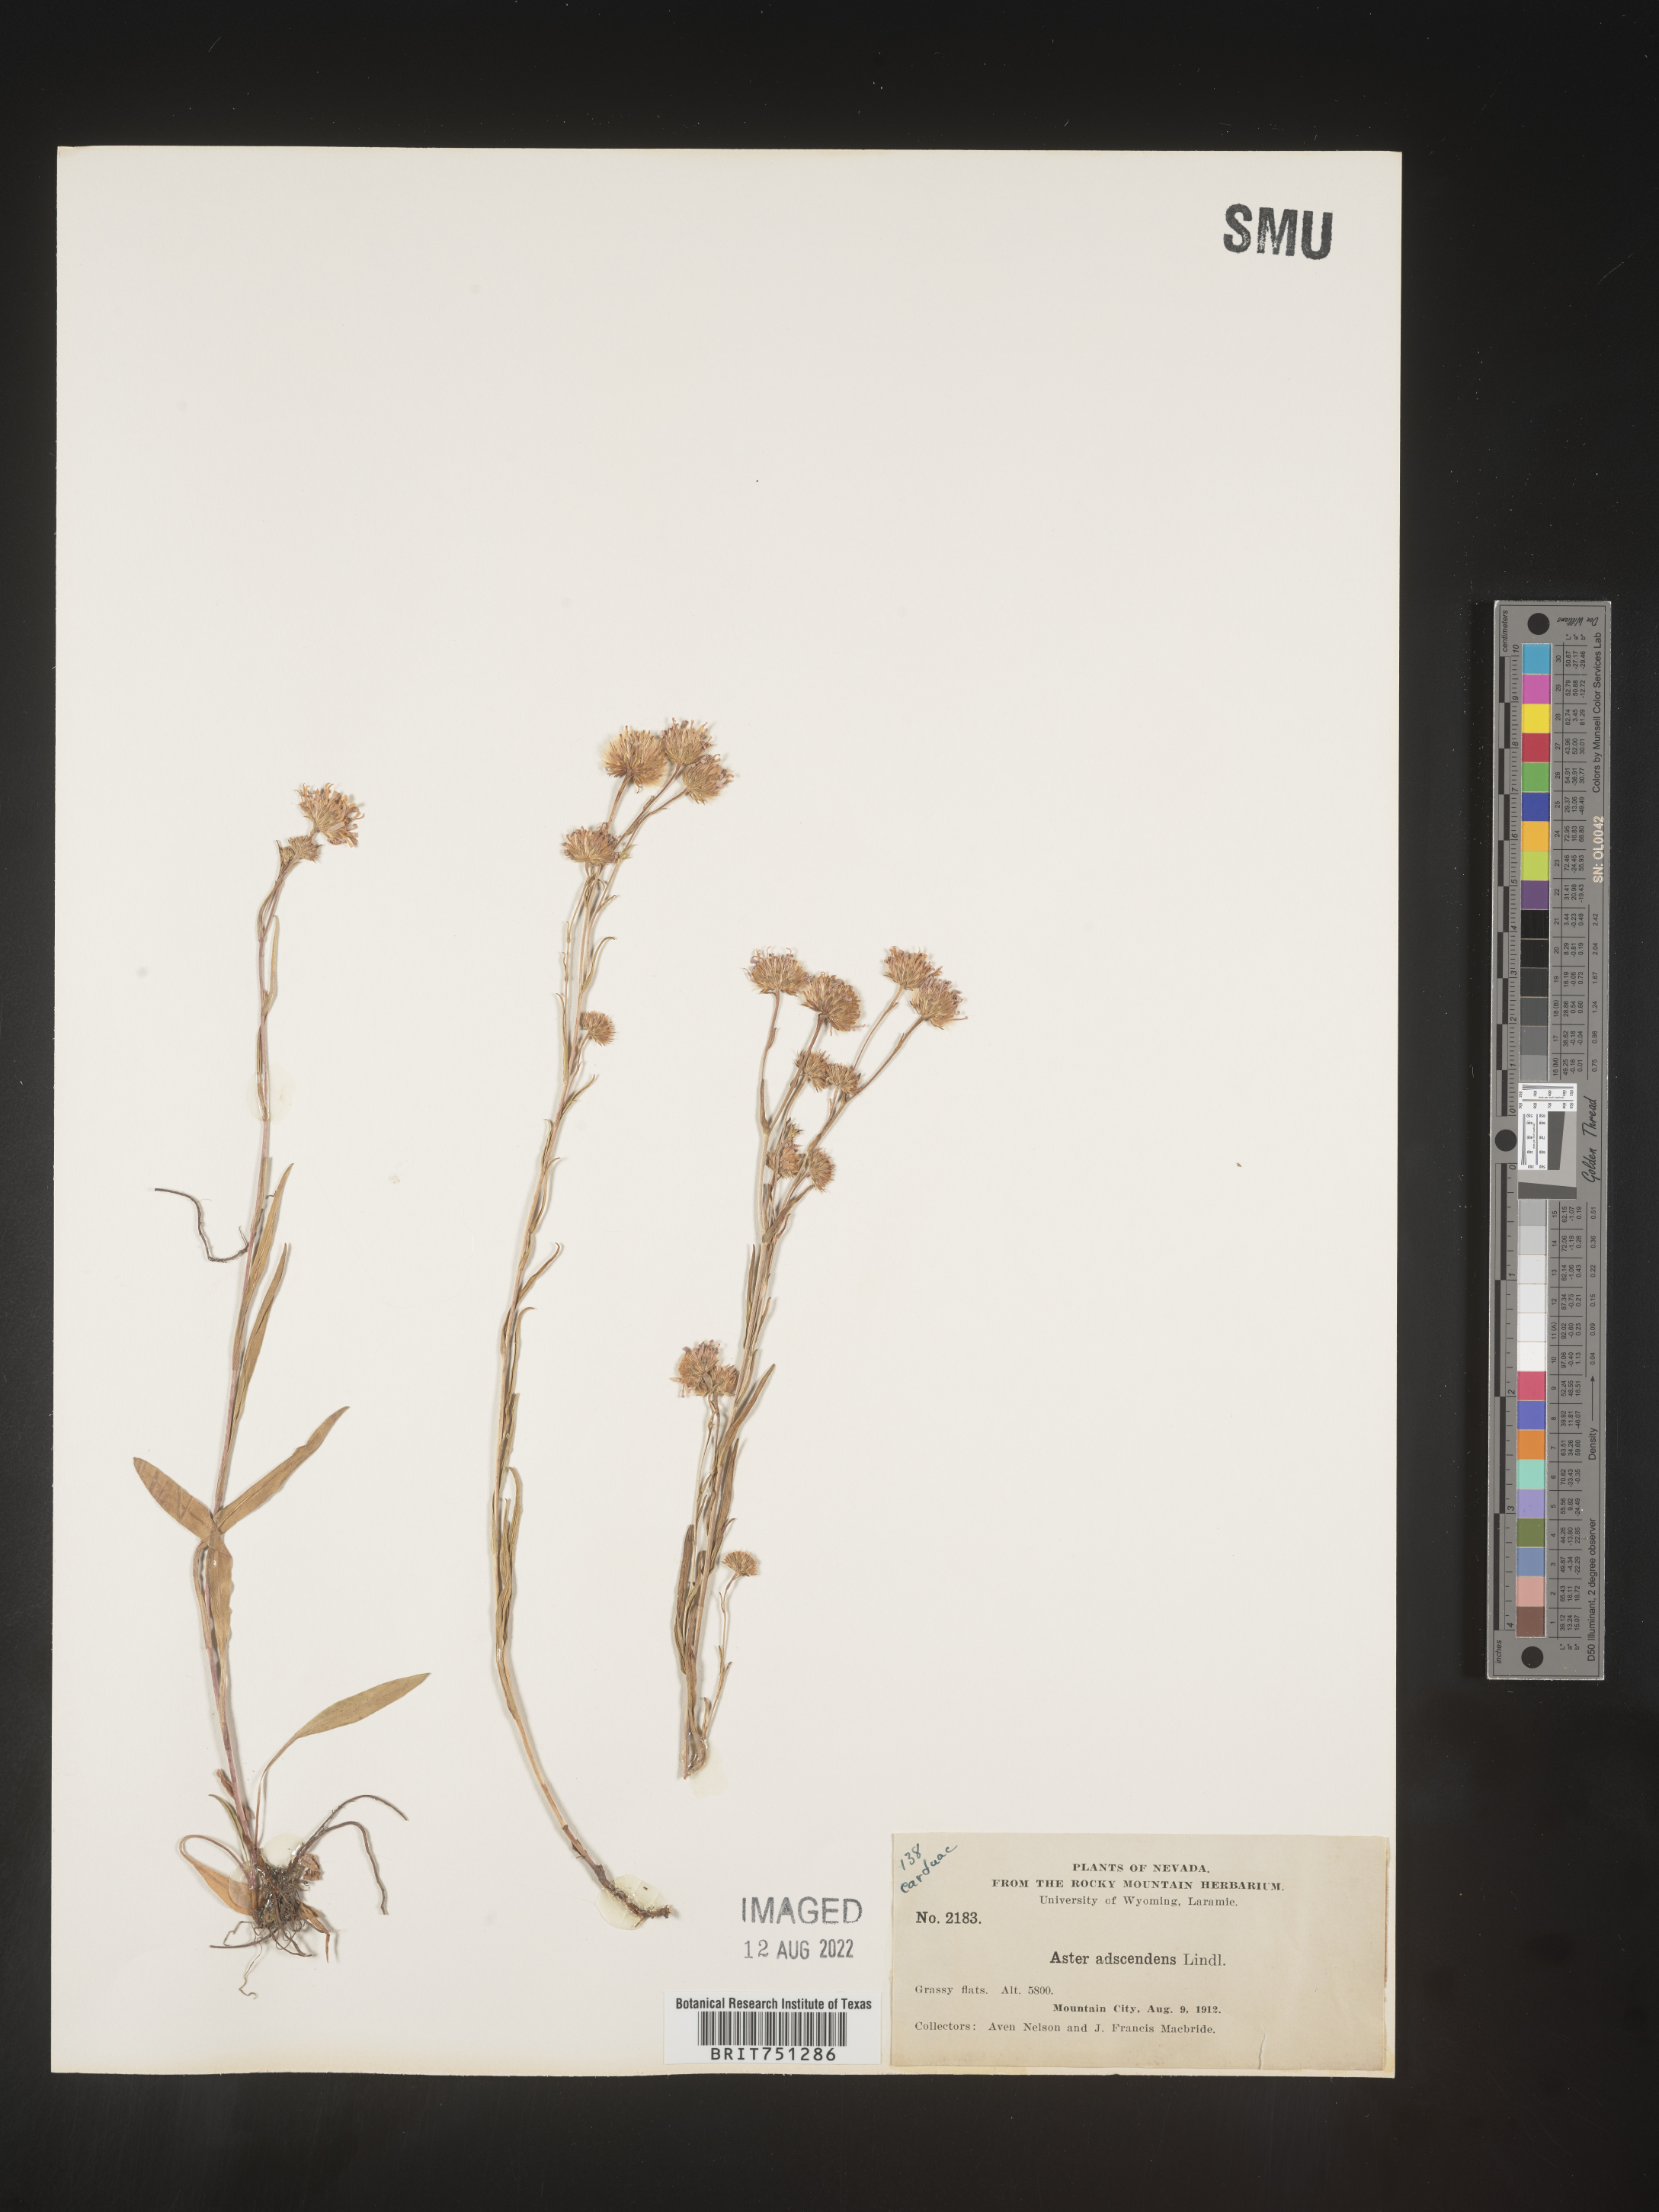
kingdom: Plantae
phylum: Tracheophyta
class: Magnoliopsida
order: Asterales
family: Asteraceae
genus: Symphyotrichum
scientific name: Symphyotrichum ascendens
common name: Intermountain aster
